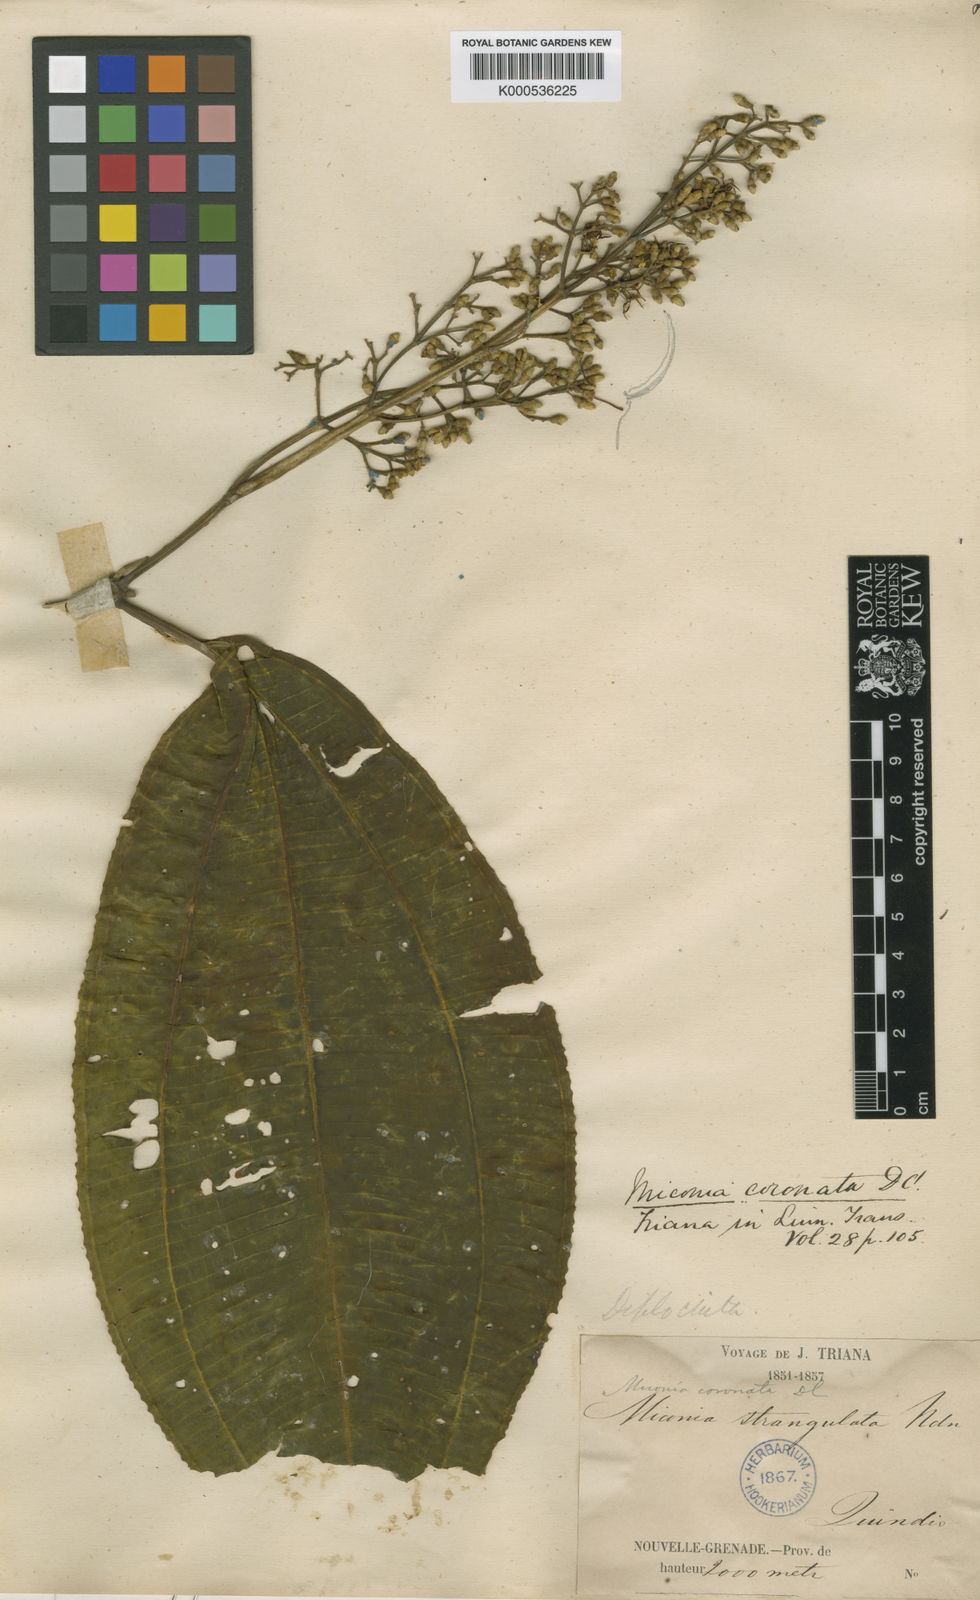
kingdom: Plantae
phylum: Tracheophyta
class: Magnoliopsida
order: Myrtales
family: Melastomataceae
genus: Miconia
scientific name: Miconia coronata
